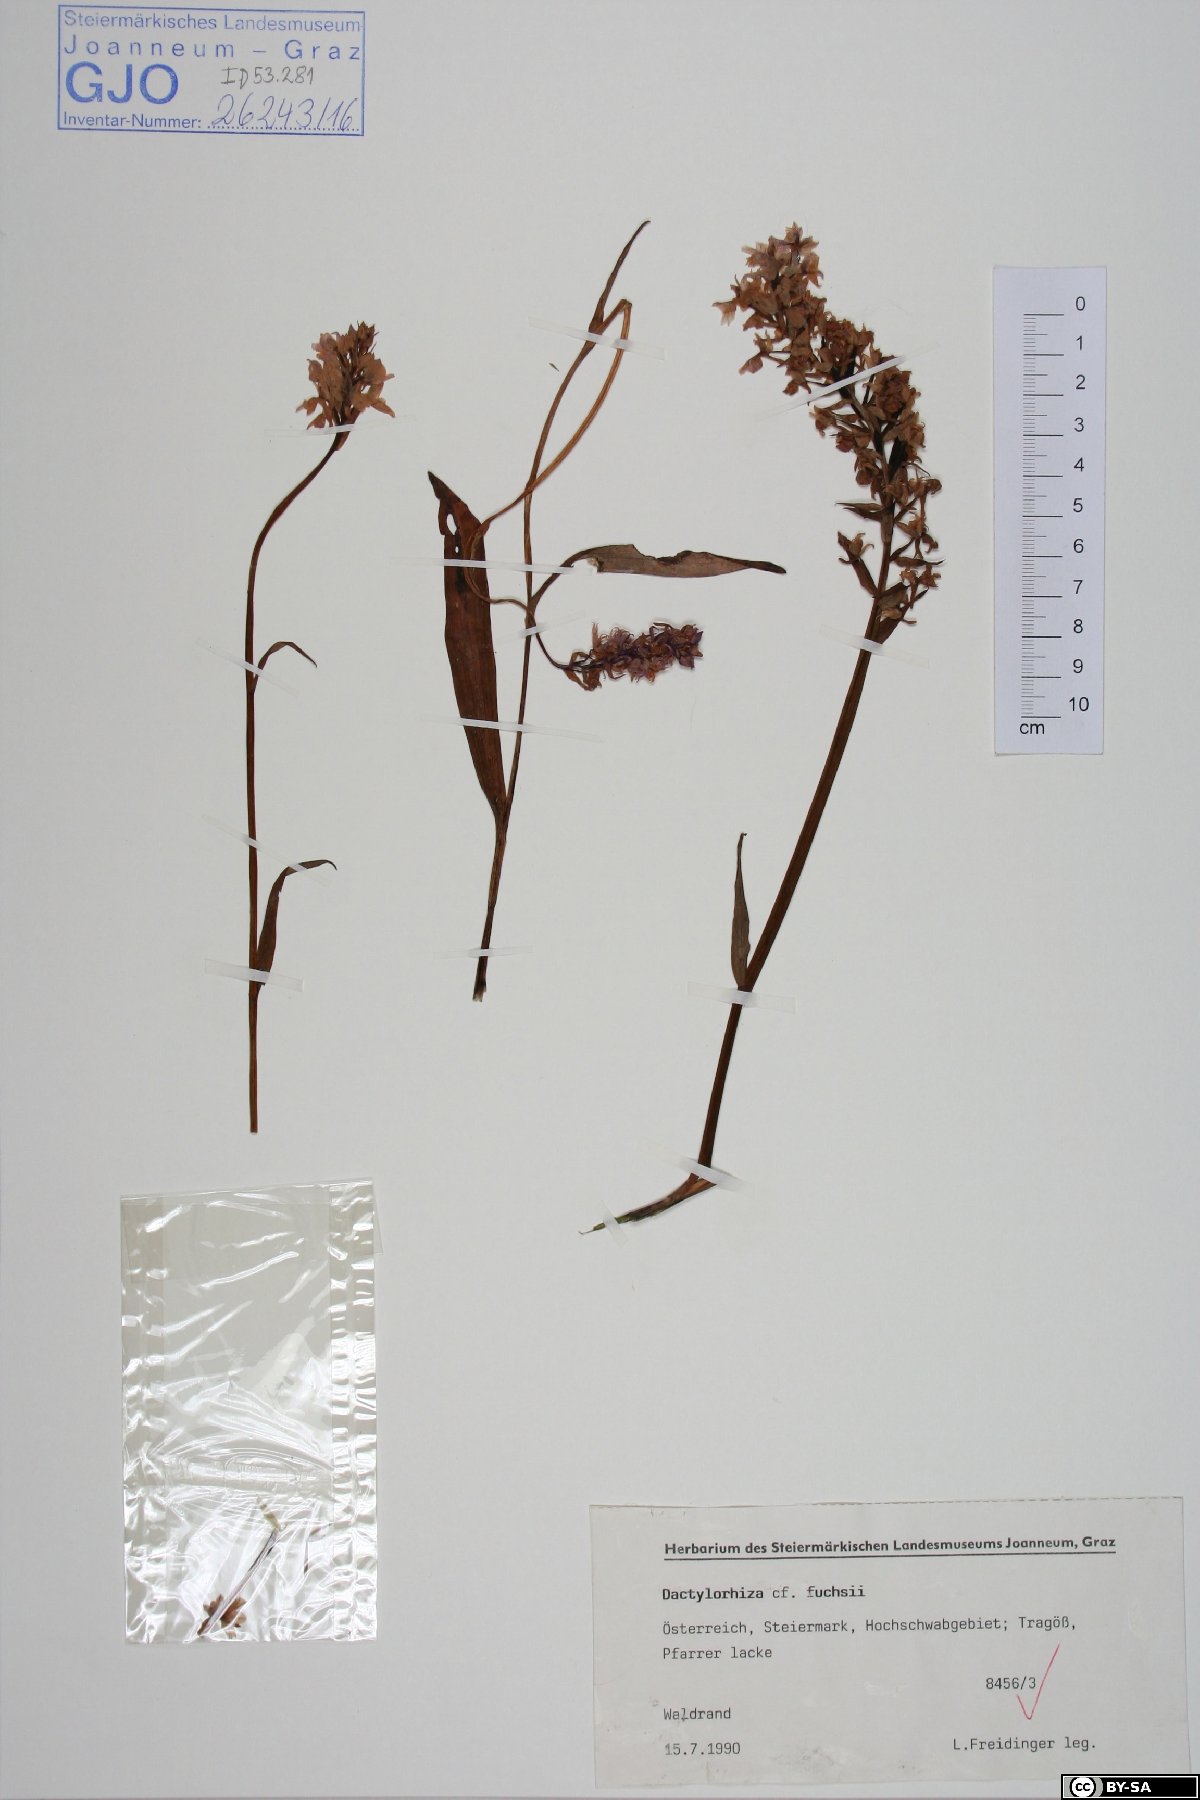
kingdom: Plantae
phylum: Tracheophyta
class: Liliopsida
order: Asparagales
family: Orchidaceae
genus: Dactylorhiza
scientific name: Dactylorhiza maculata
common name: Heath spotted-orchid
